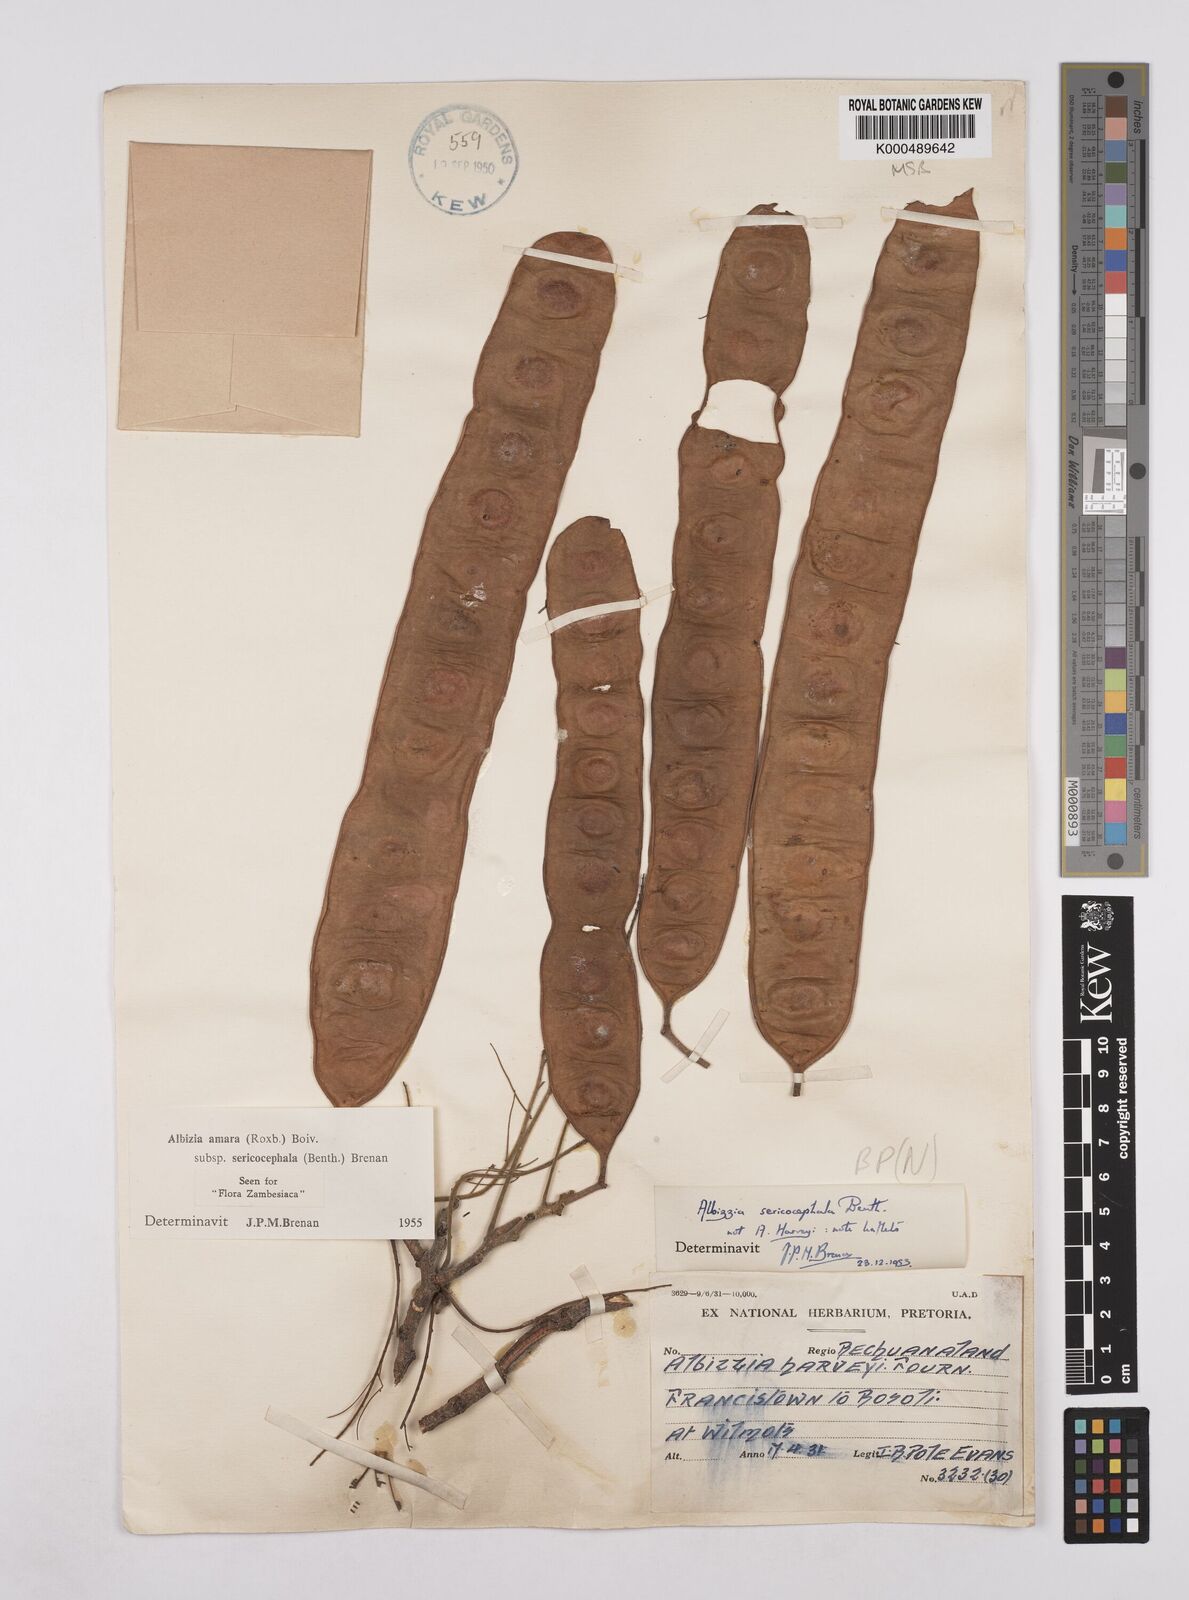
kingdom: Plantae
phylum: Tracheophyta
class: Magnoliopsida
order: Fabales
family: Fabaceae
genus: Albizia
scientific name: Albizia amara
